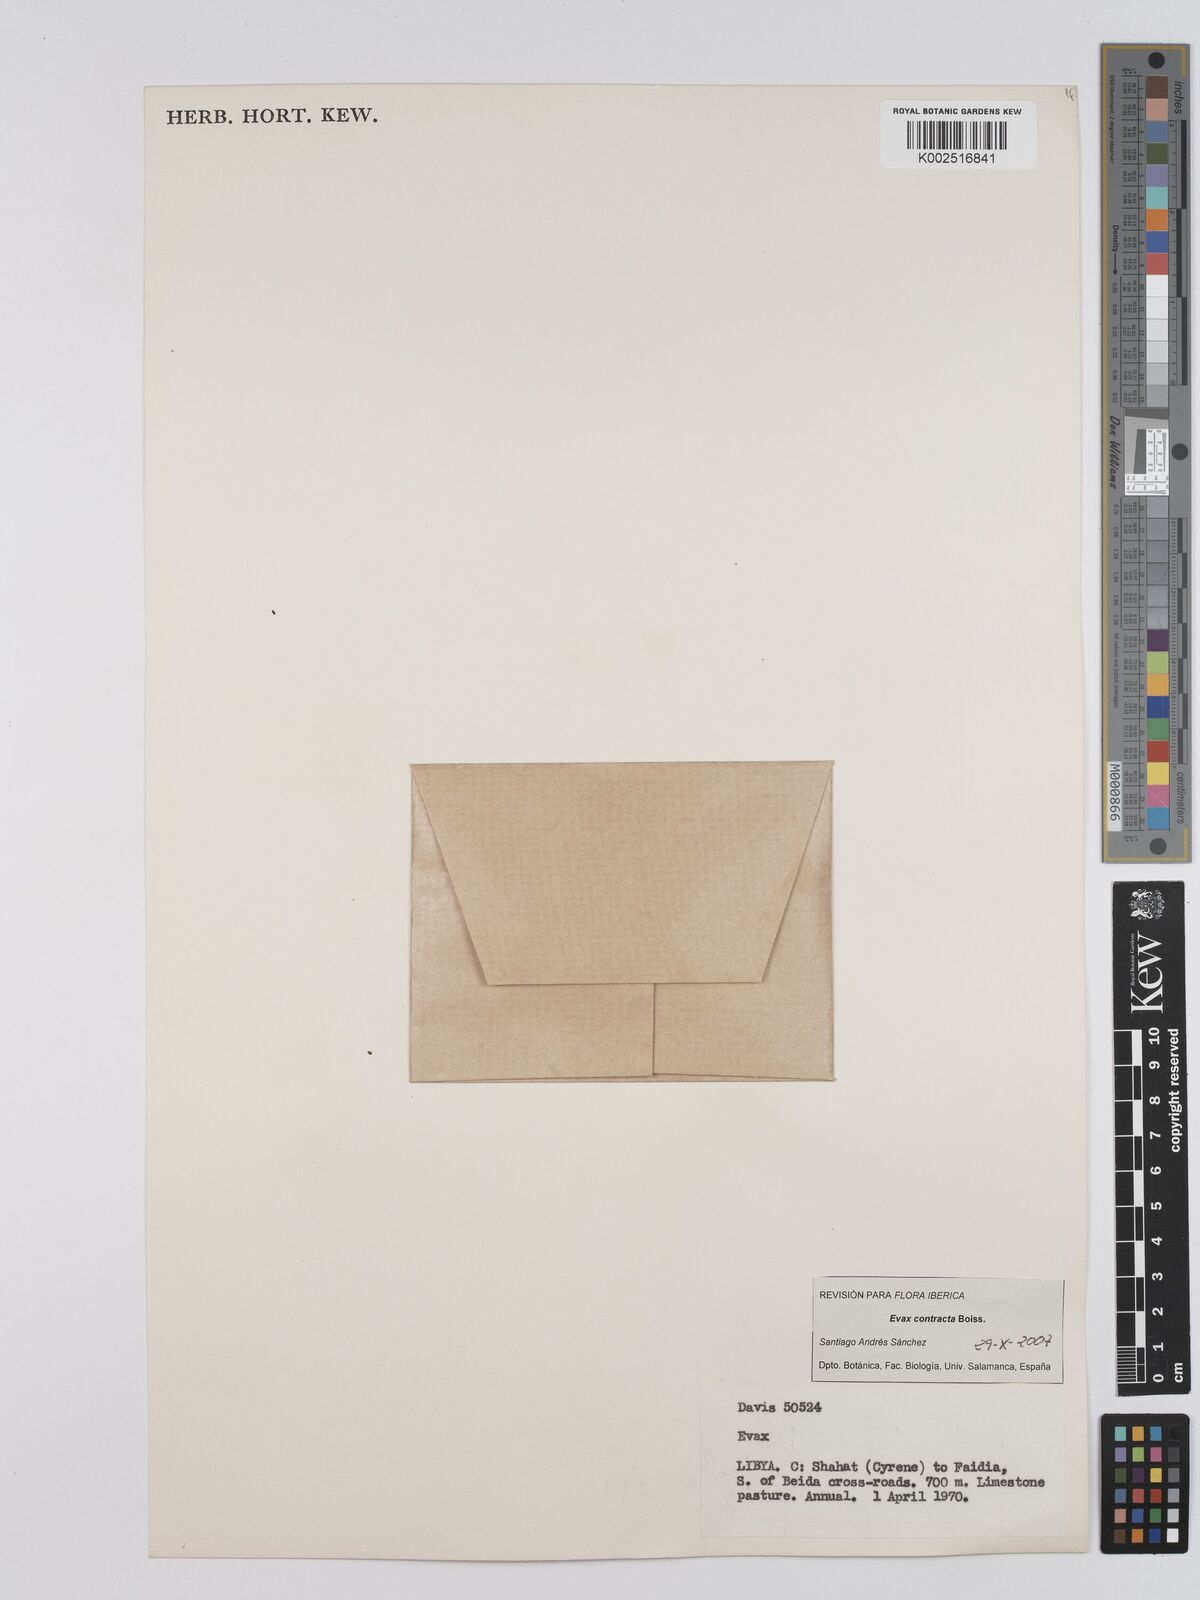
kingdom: Plantae
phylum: Tracheophyta
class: Magnoliopsida
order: Asterales
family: Asteraceae
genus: Filago
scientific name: Filago
